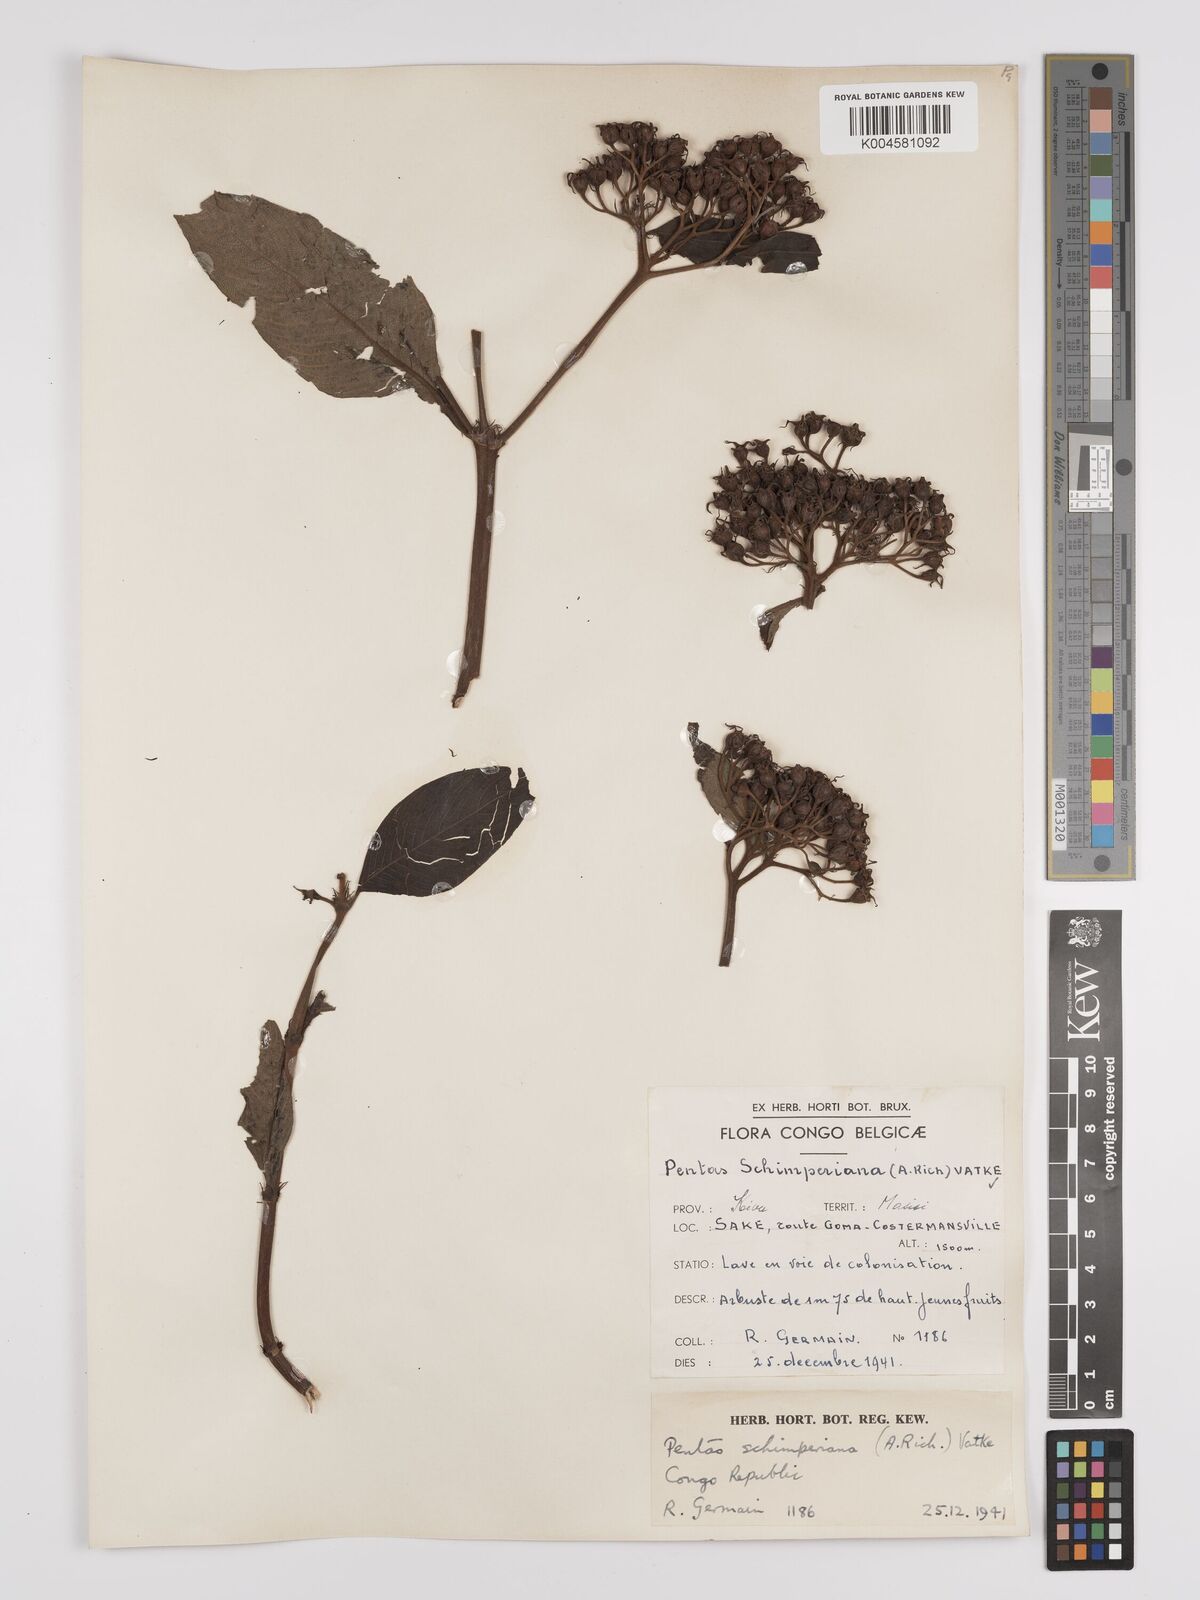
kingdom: Plantae
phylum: Tracheophyta
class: Magnoliopsida
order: Gentianales
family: Rubiaceae
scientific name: Rubiaceae
